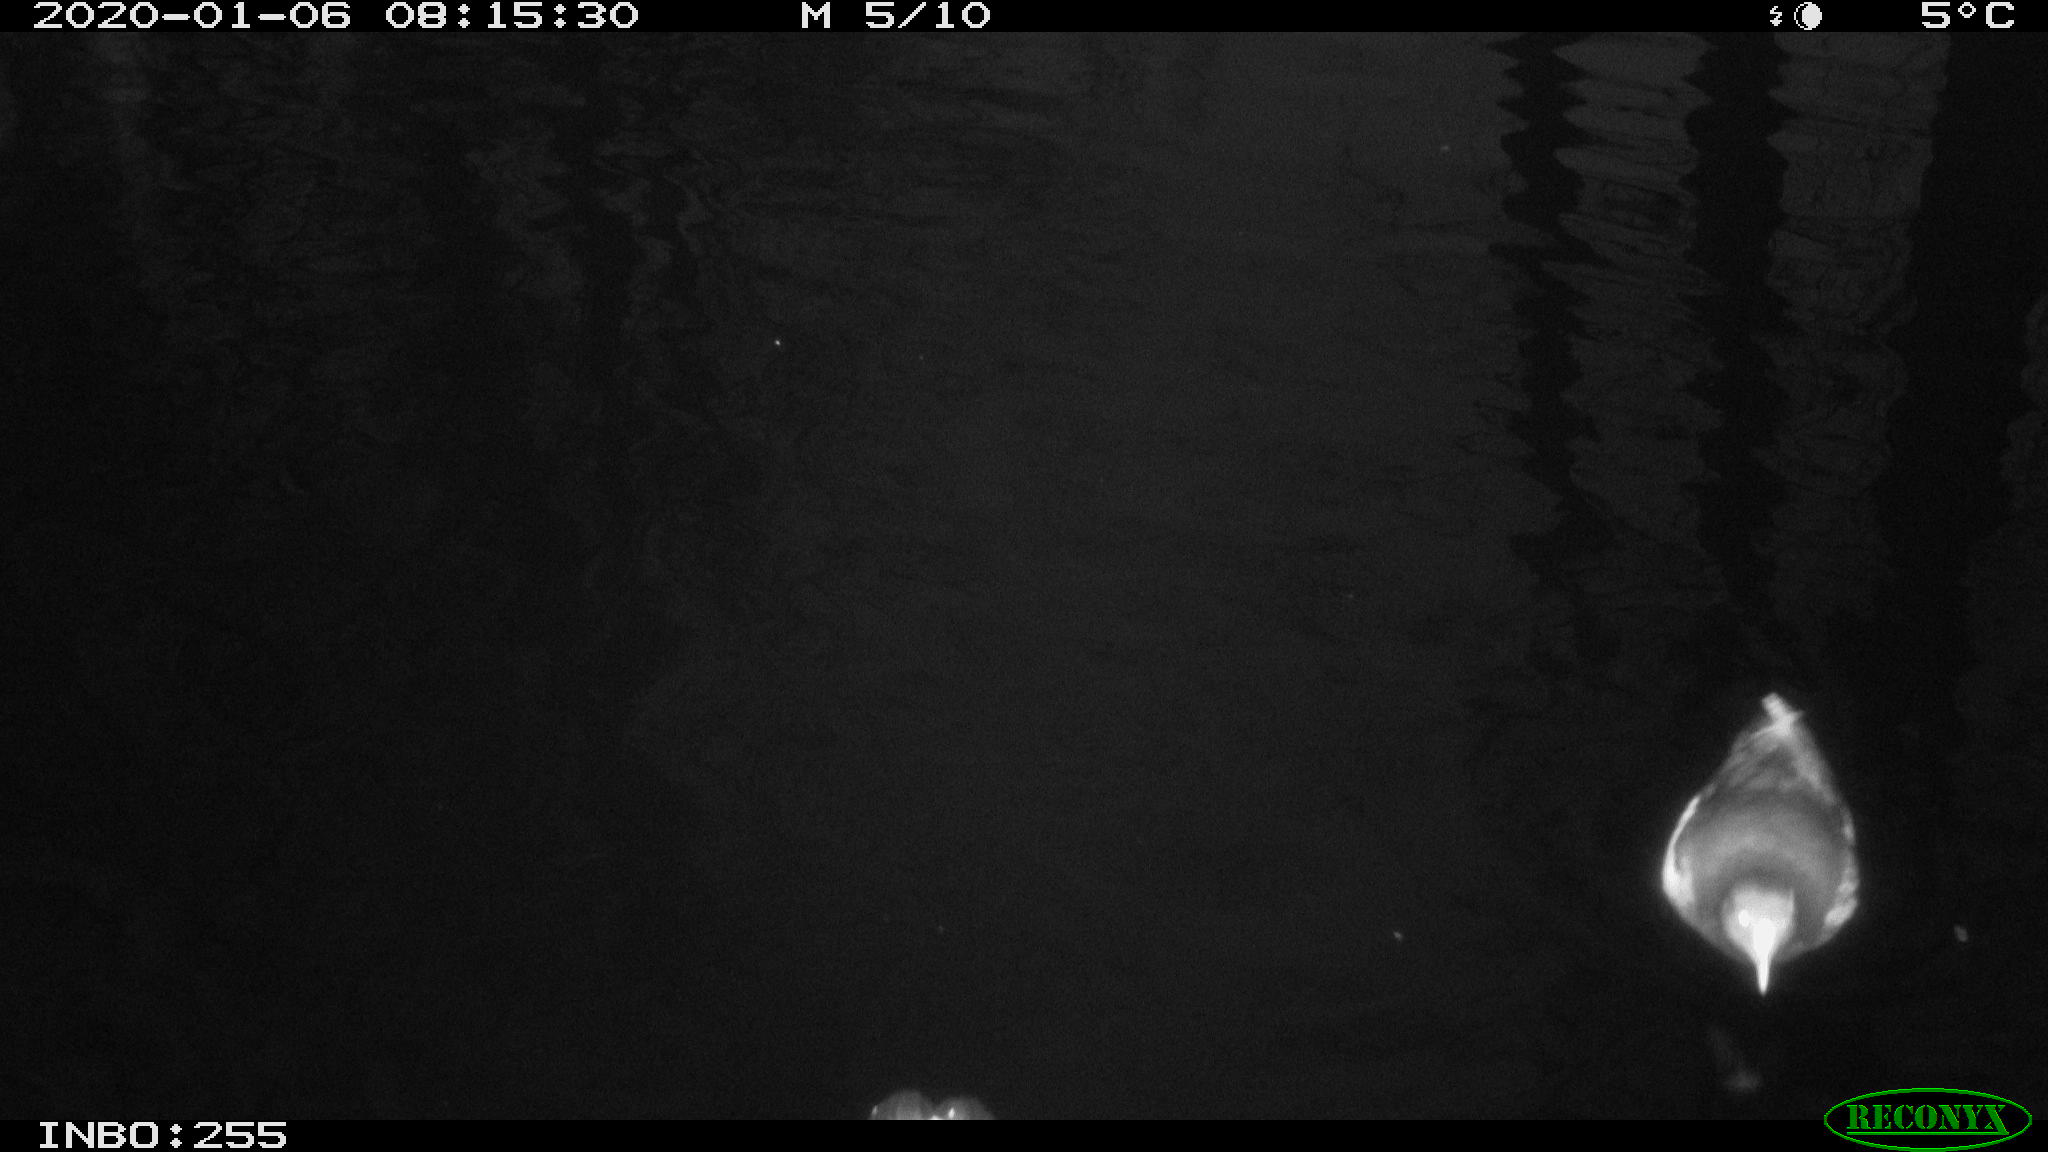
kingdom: Animalia
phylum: Chordata
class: Aves
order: Gruiformes
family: Rallidae
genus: Gallinula
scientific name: Gallinula chloropus
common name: Common moorhen
